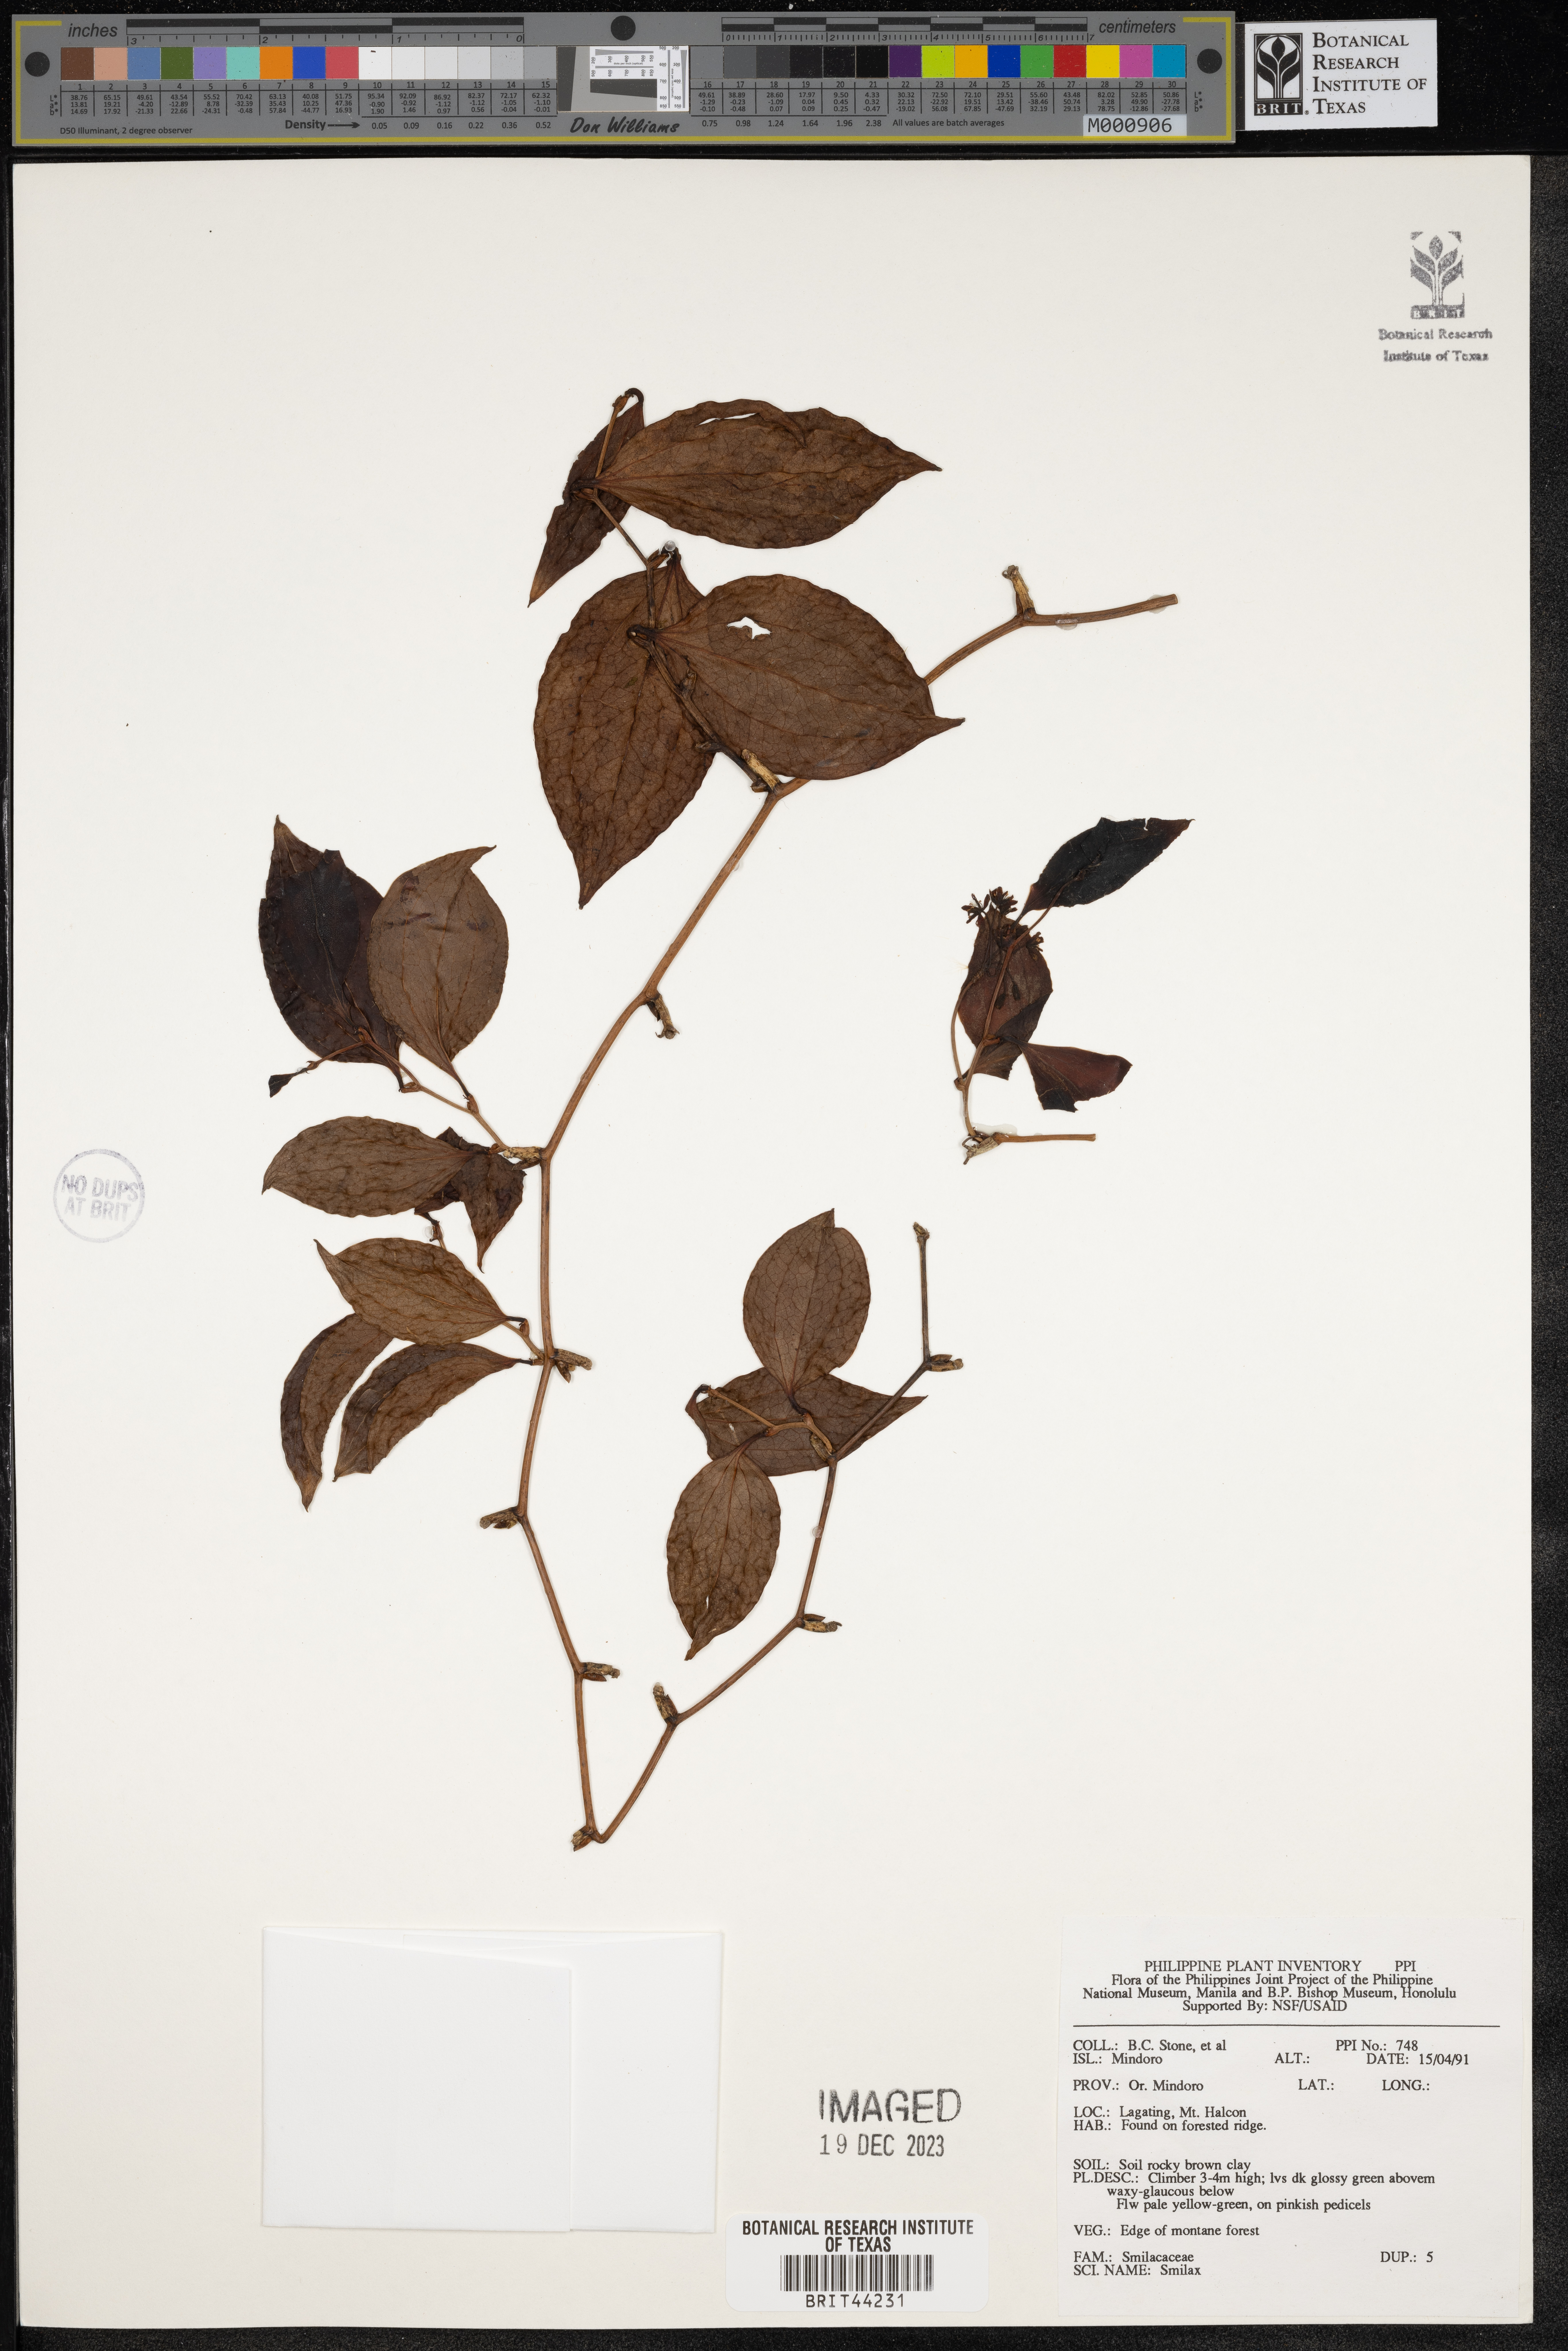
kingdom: Plantae
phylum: Tracheophyta
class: Liliopsida
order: Liliales
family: Smilacaceae
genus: Smilax
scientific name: Smilax
